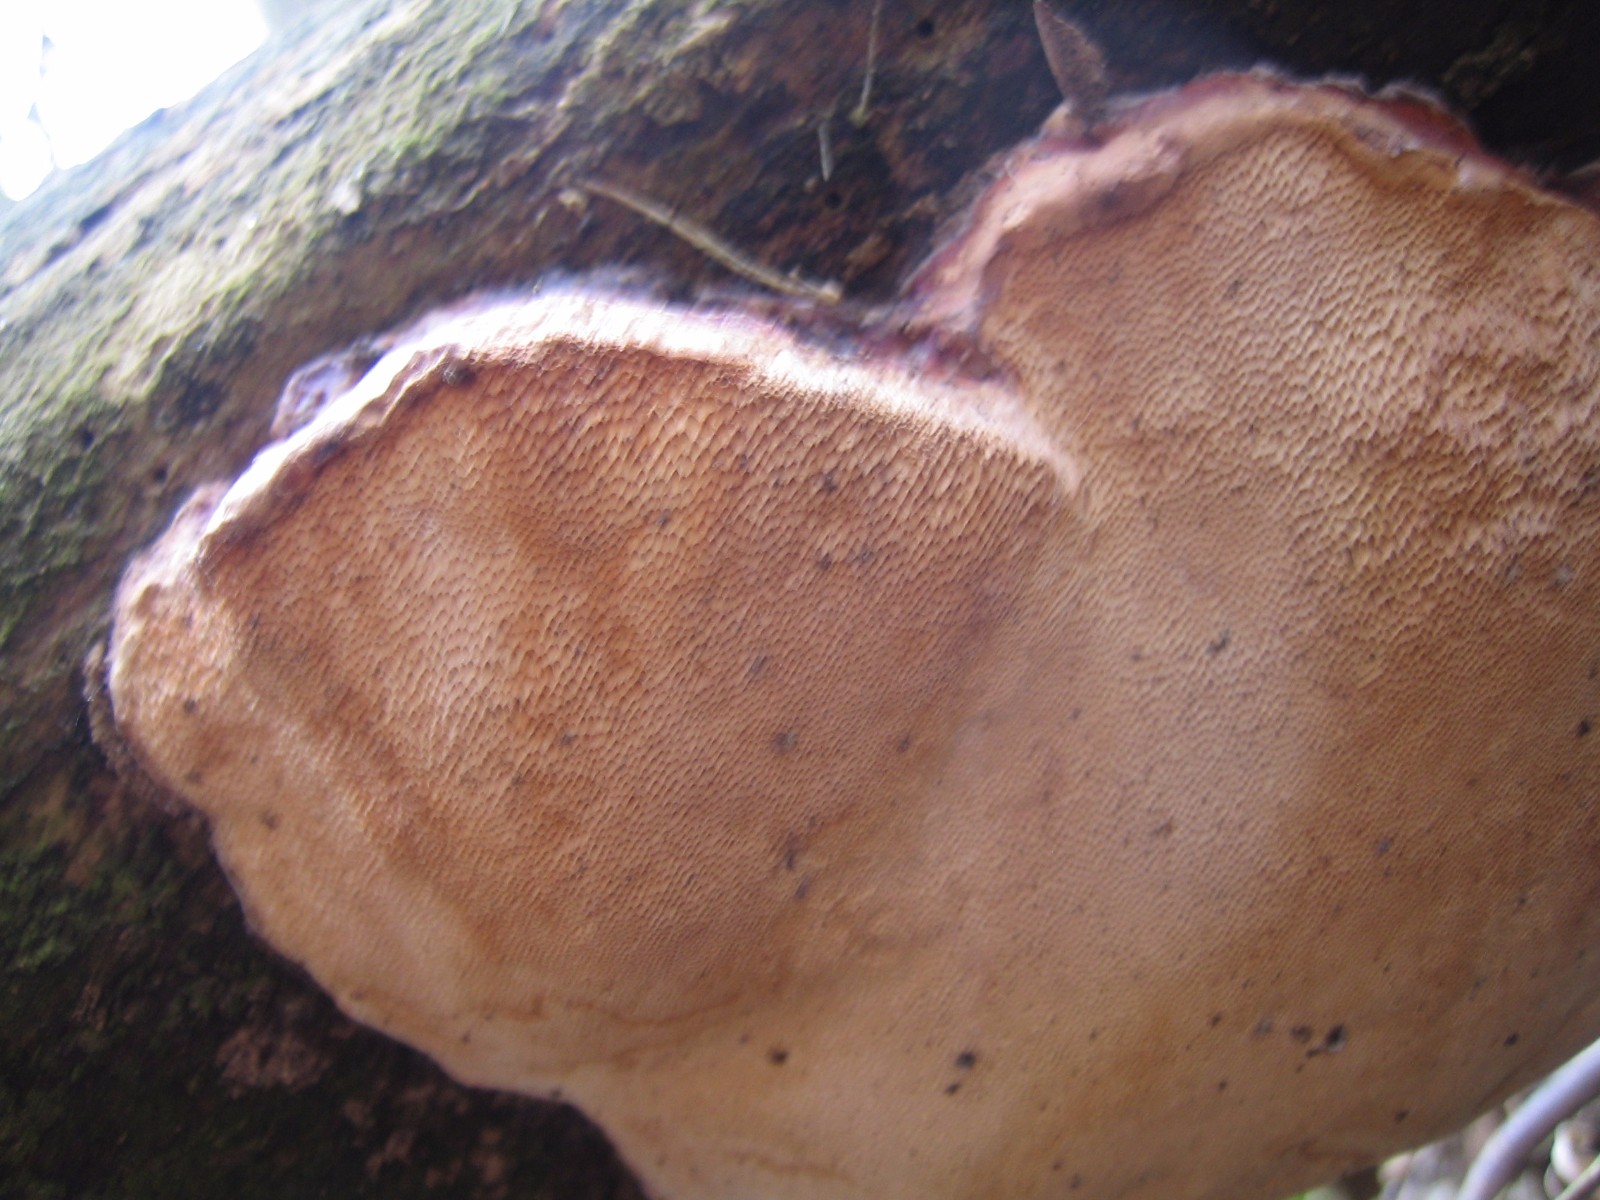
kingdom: Fungi
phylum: Basidiomycota
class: Agaricomycetes
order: Hymenochaetales
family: Hymenochaetaceae
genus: Phellinus
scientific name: Phellinus pomaceus
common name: blomme-ildporesvamp
